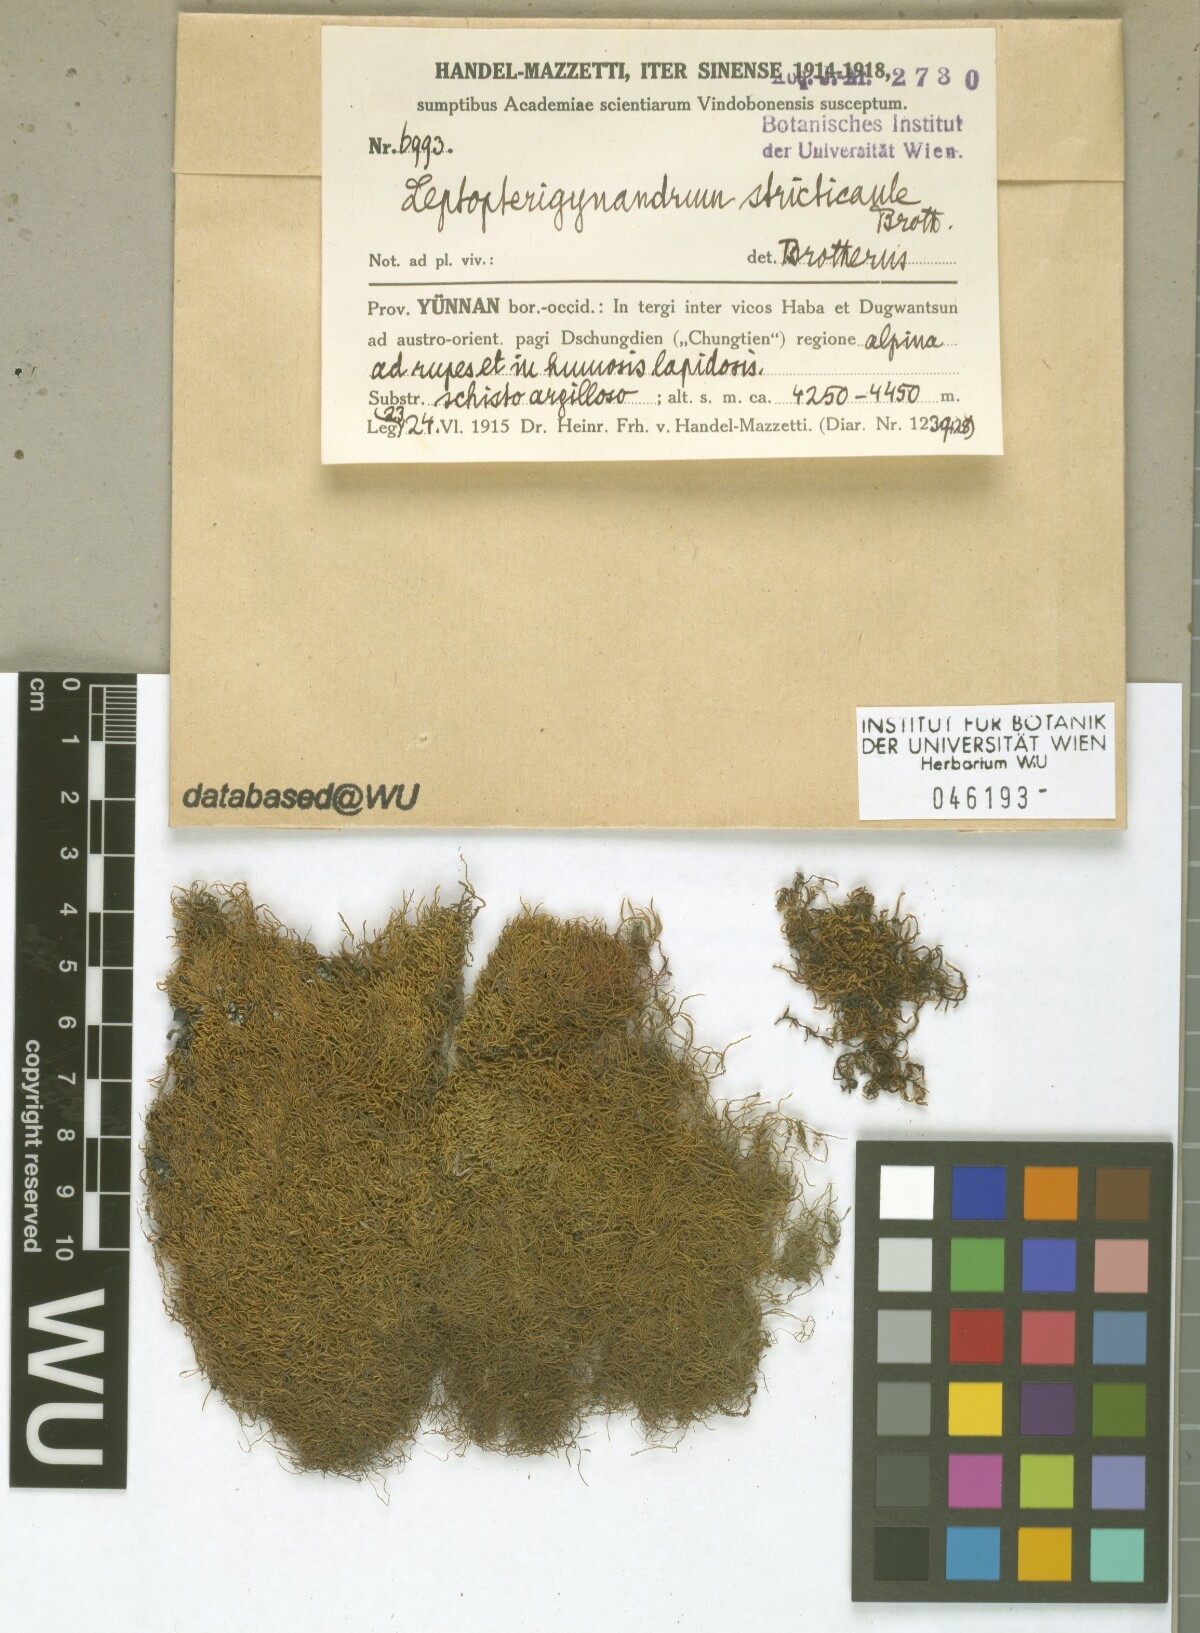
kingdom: Plantae
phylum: Bryophyta
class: Bryopsida
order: Hypnales
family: Taxiphyllaceae
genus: Leptopterigynandrum
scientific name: Leptopterigynandrum stricticaule
